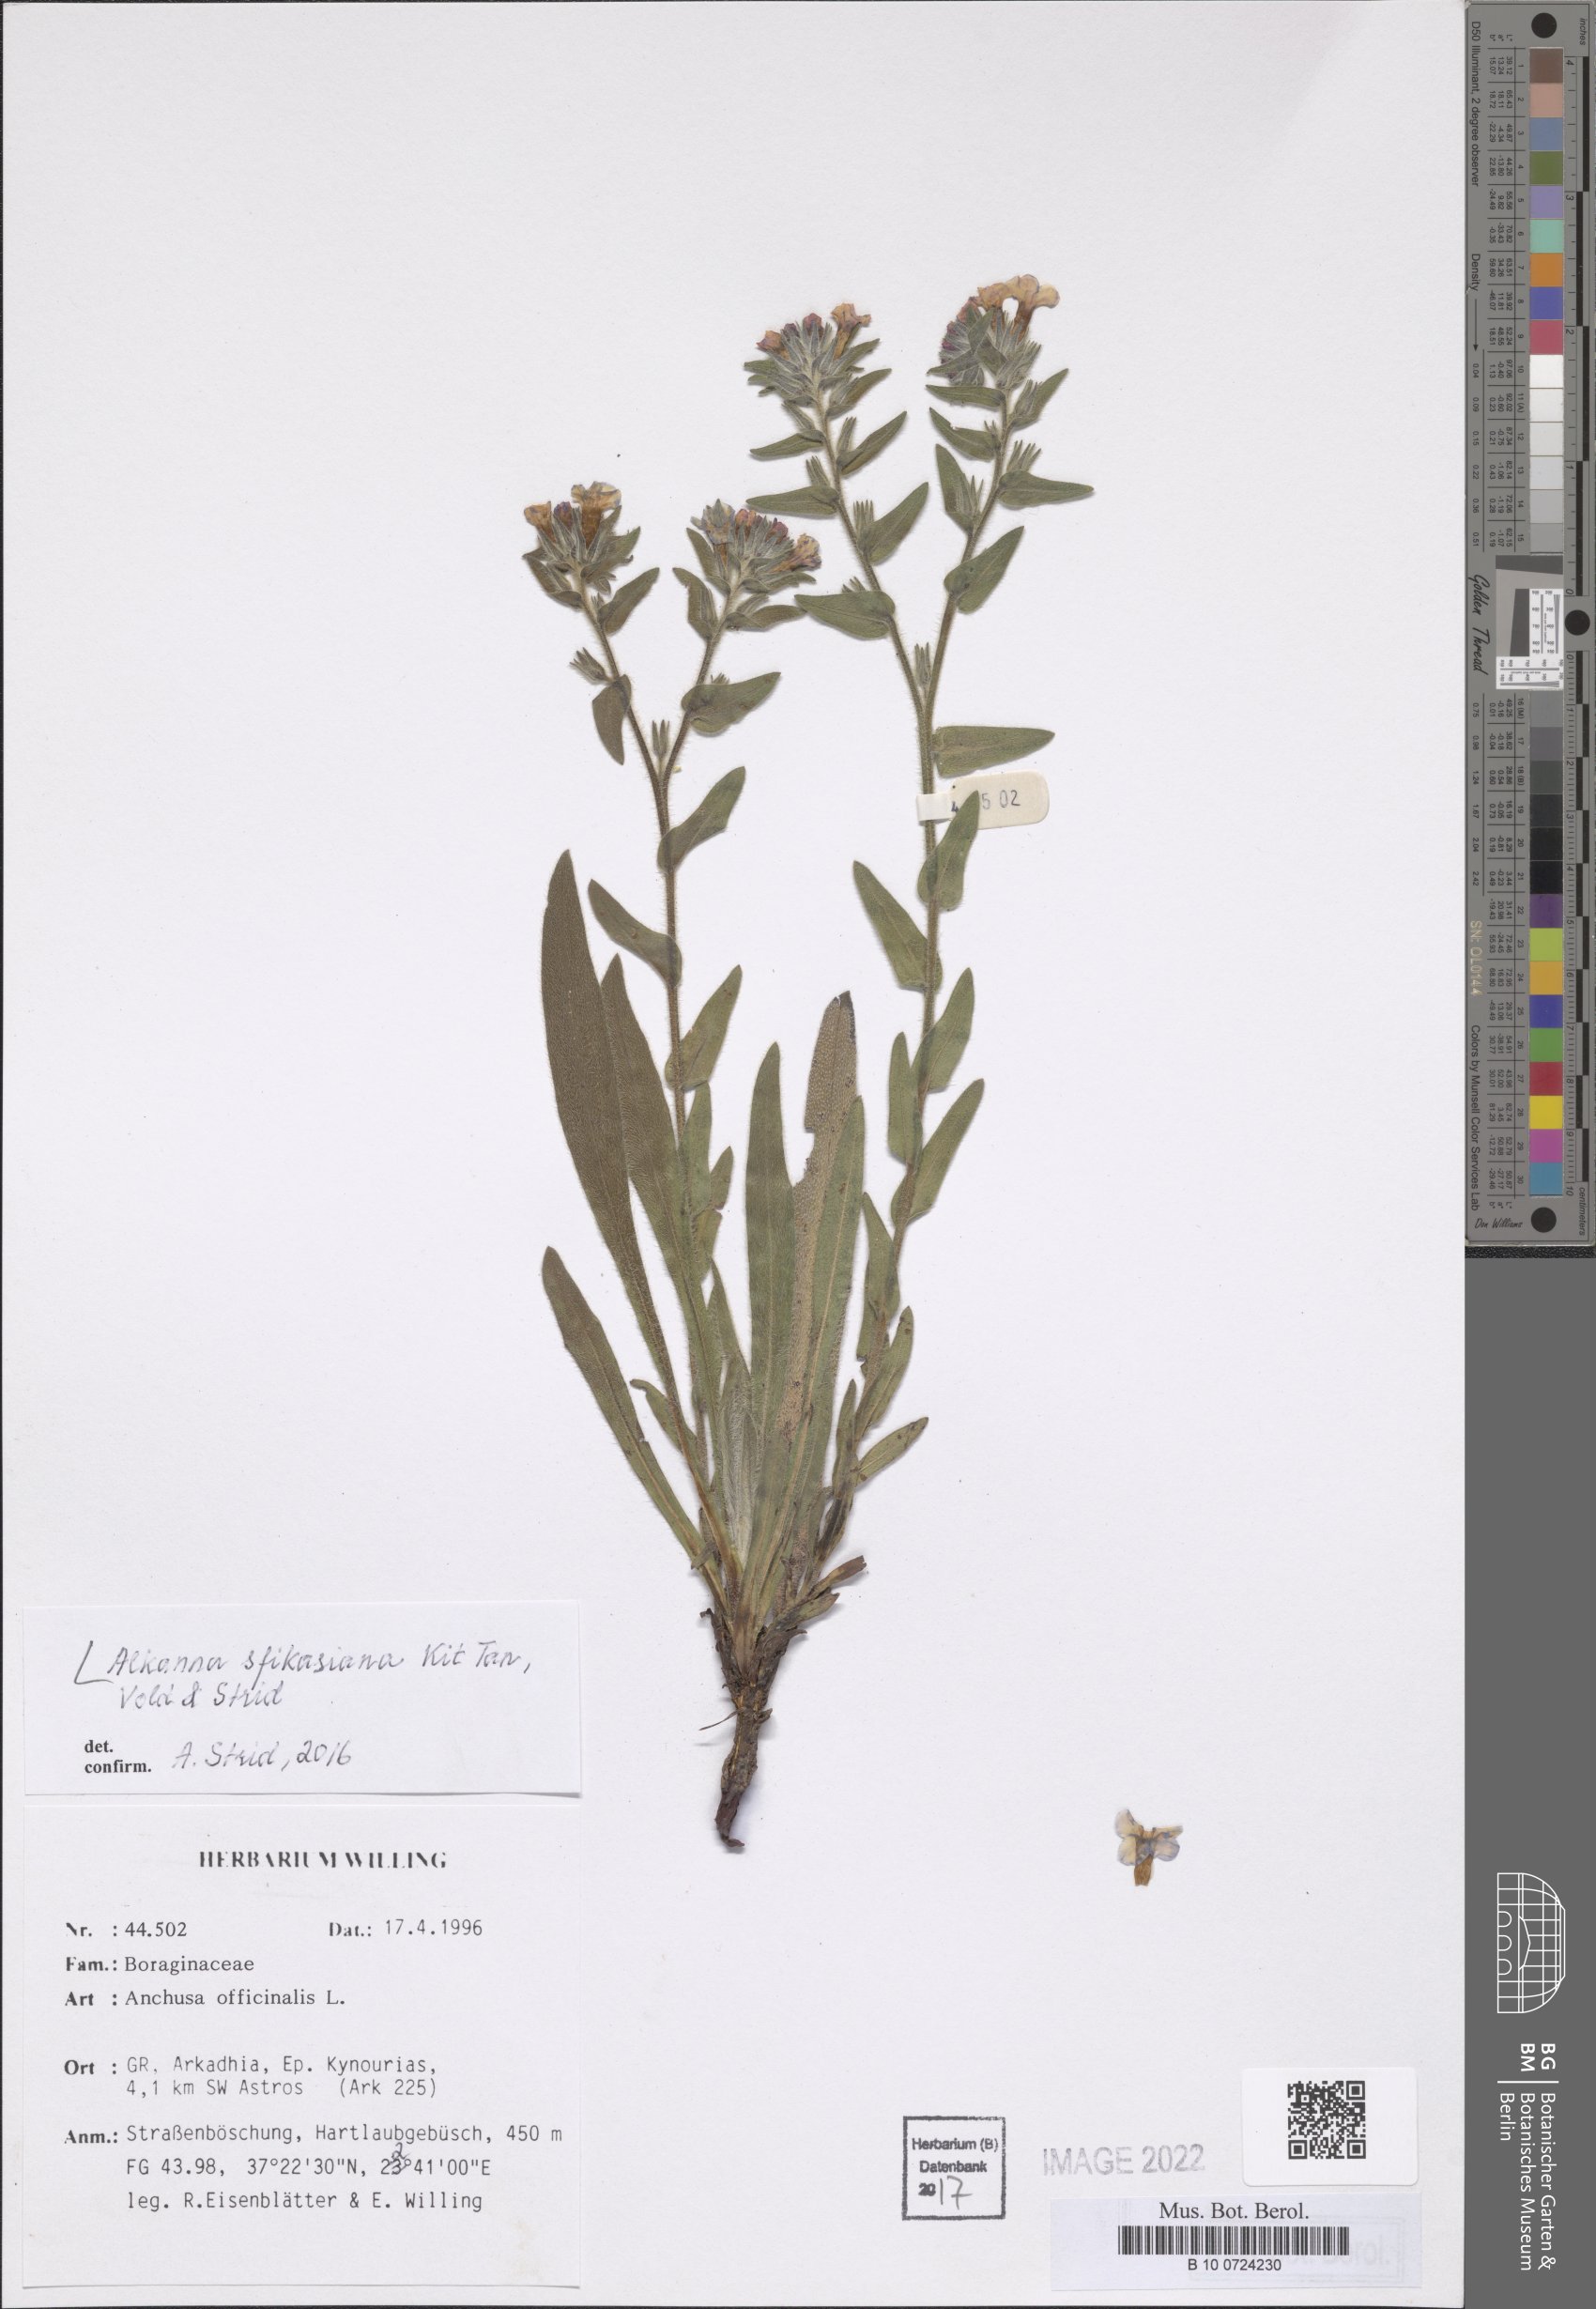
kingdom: Plantae
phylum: Tracheophyta
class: Magnoliopsida
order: Boraginales
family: Boraginaceae
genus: Alkanna
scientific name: Alkanna sfikasiana
